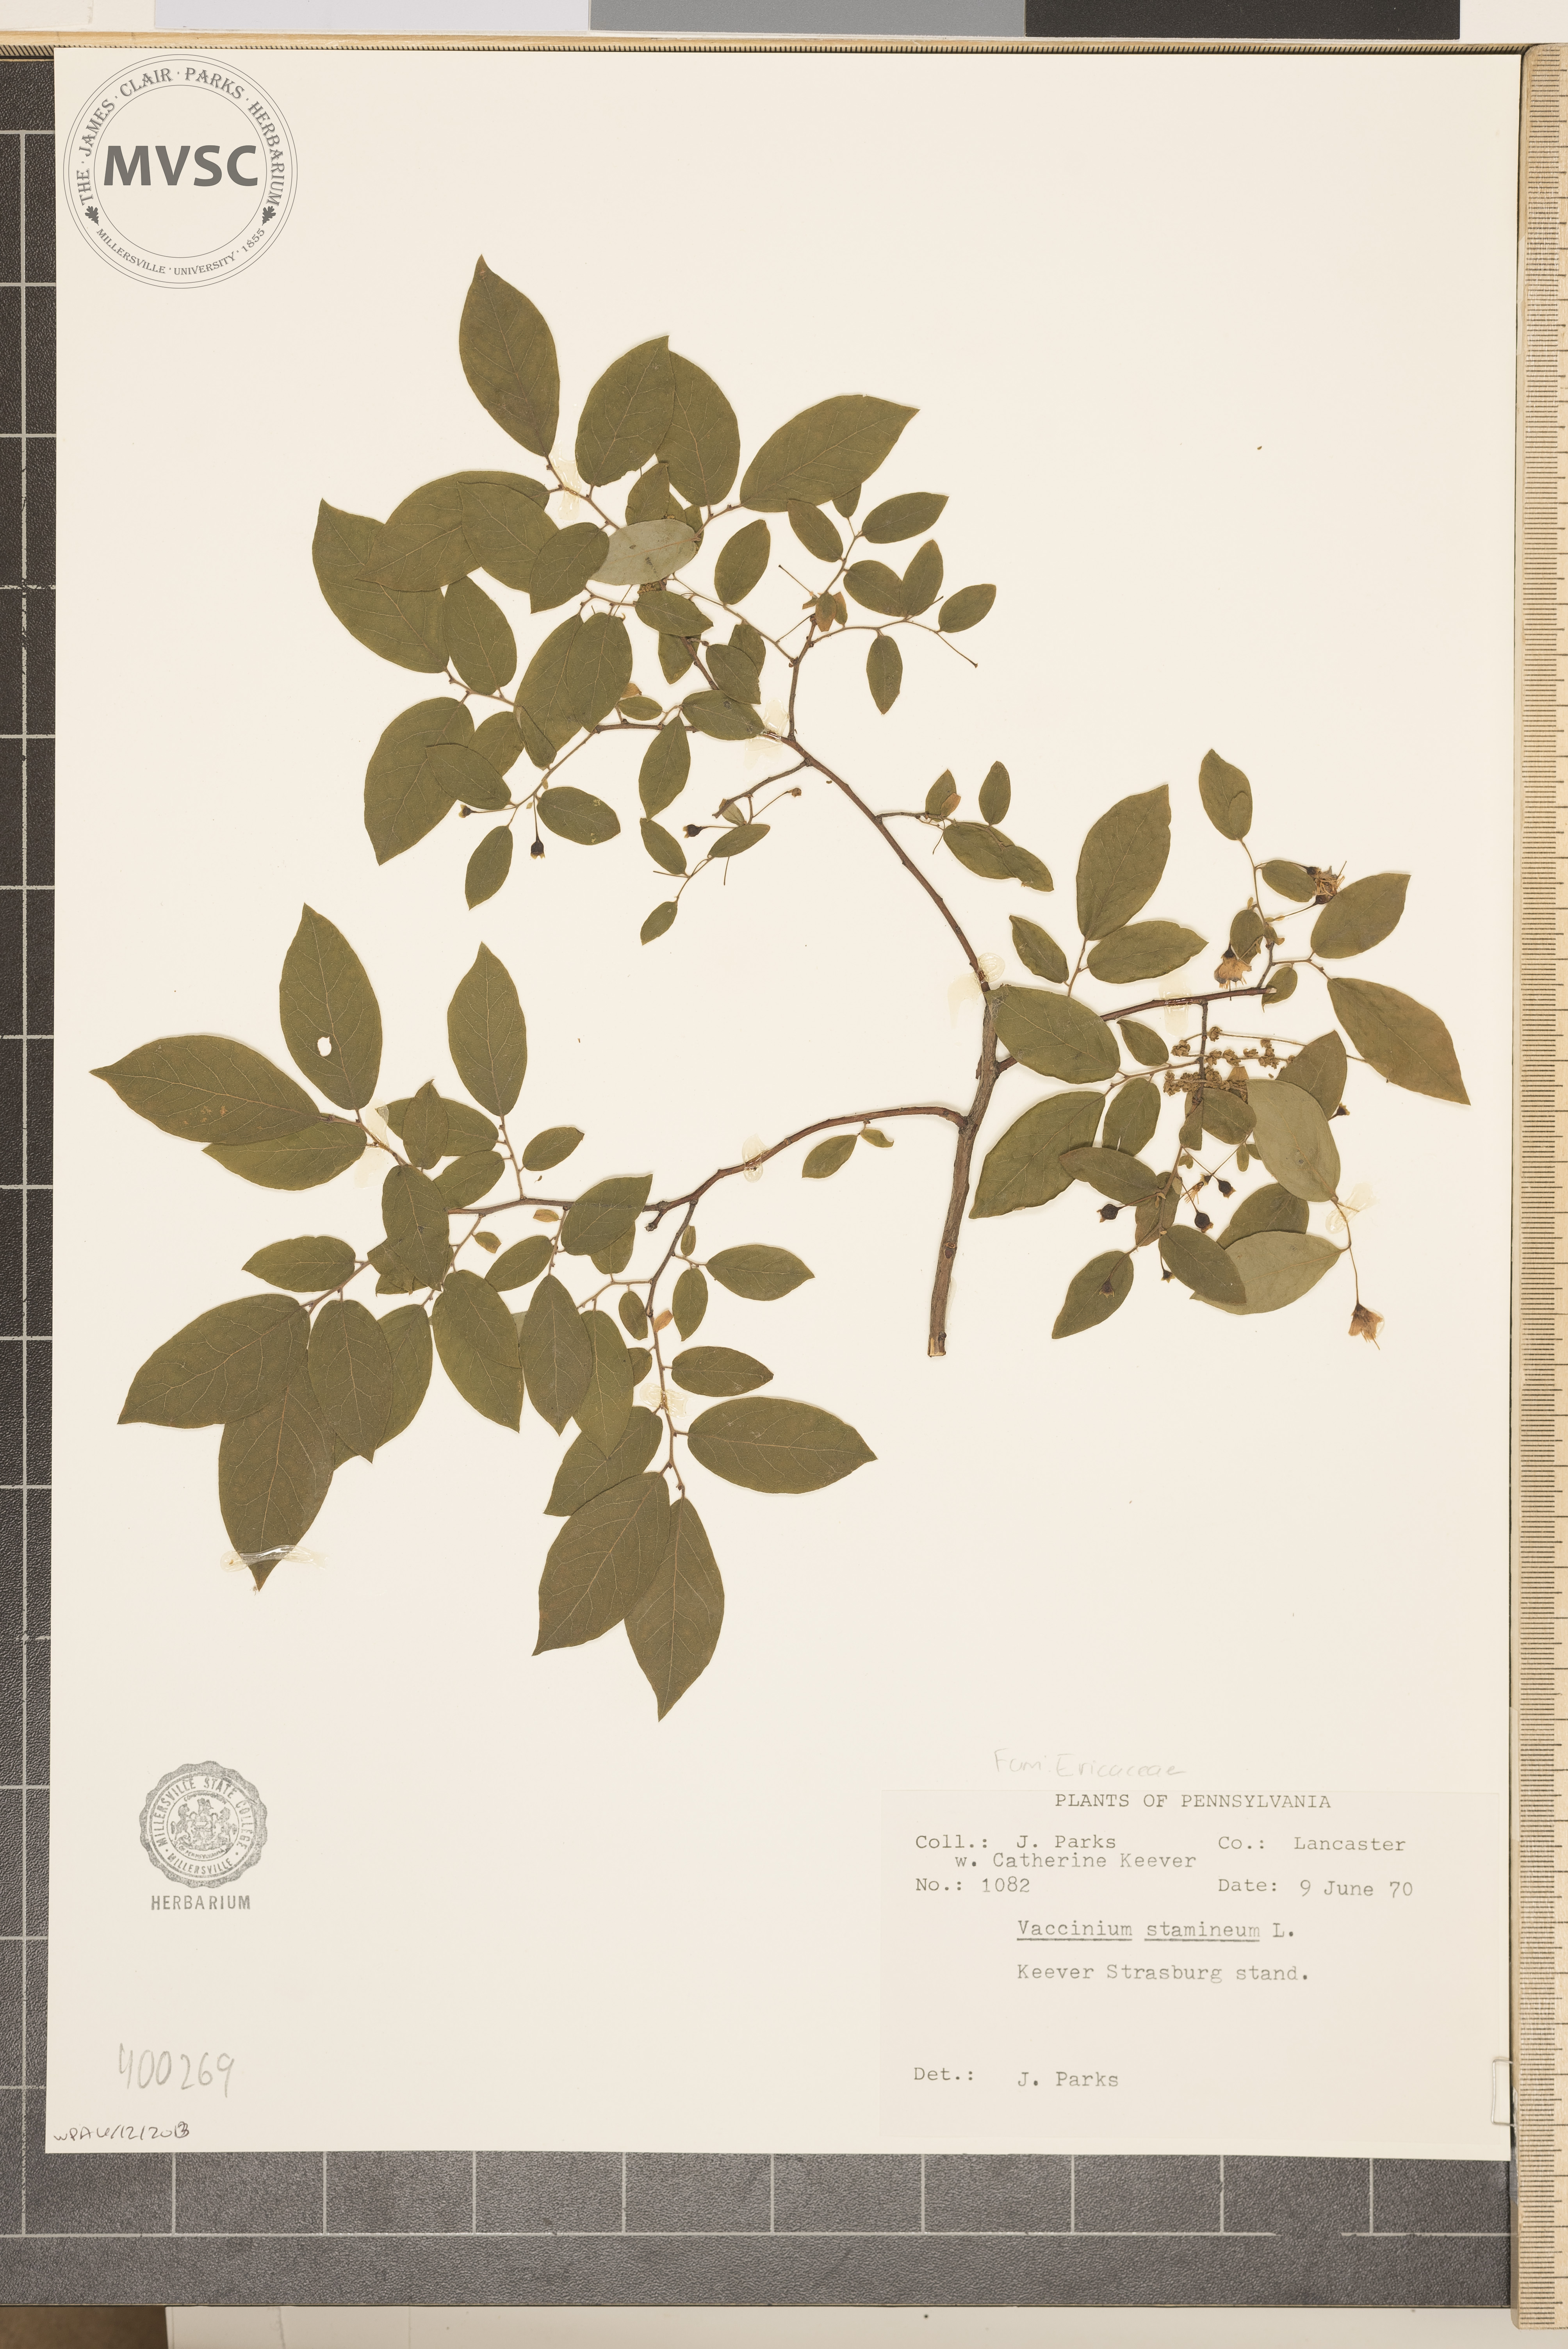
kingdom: Plantae
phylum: Tracheophyta
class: Magnoliopsida
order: Ericales
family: Ericaceae
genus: Vaccinium
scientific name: Vaccinium stamineum
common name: deerberry
